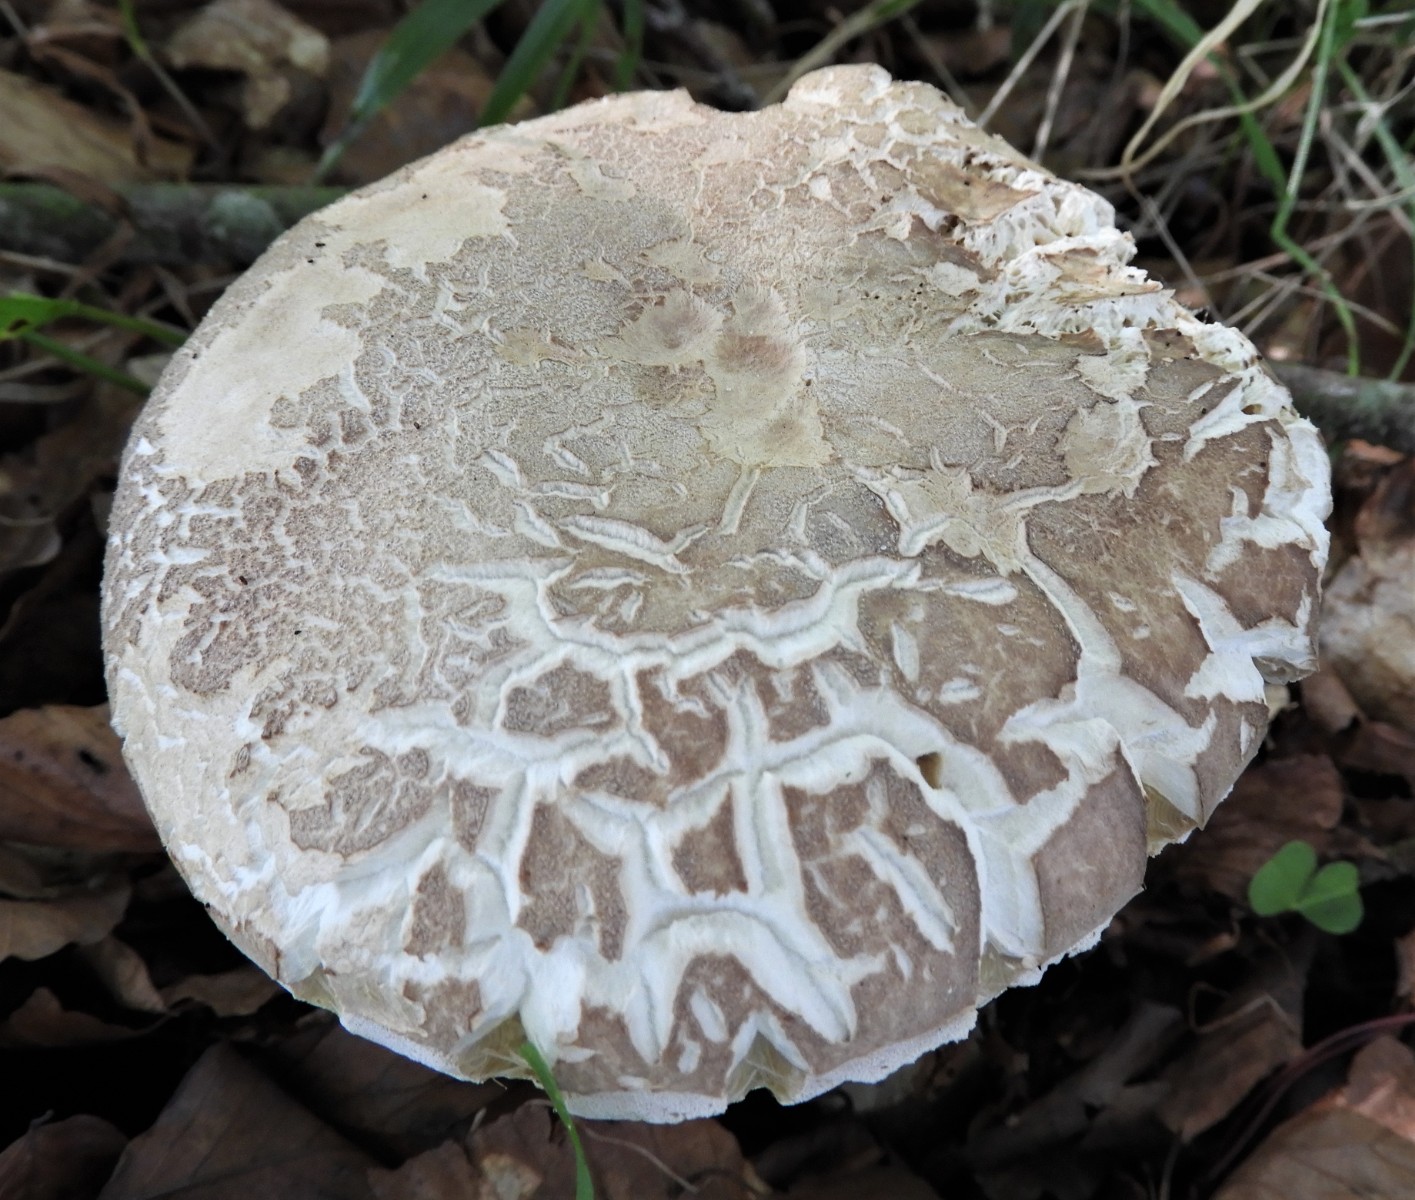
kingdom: Fungi
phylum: Basidiomycota
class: Agaricomycetes
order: Boletales
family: Boletaceae
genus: Boletus
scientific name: Boletus reticulatus
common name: sommer-rørhat
